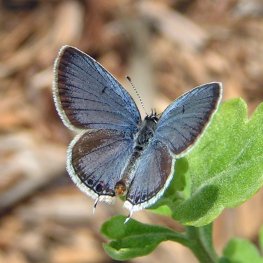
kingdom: Animalia
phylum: Arthropoda
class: Insecta
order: Lepidoptera
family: Lycaenidae
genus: Elkalyce
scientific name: Elkalyce comyntas
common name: Eastern Tailed-Blue
